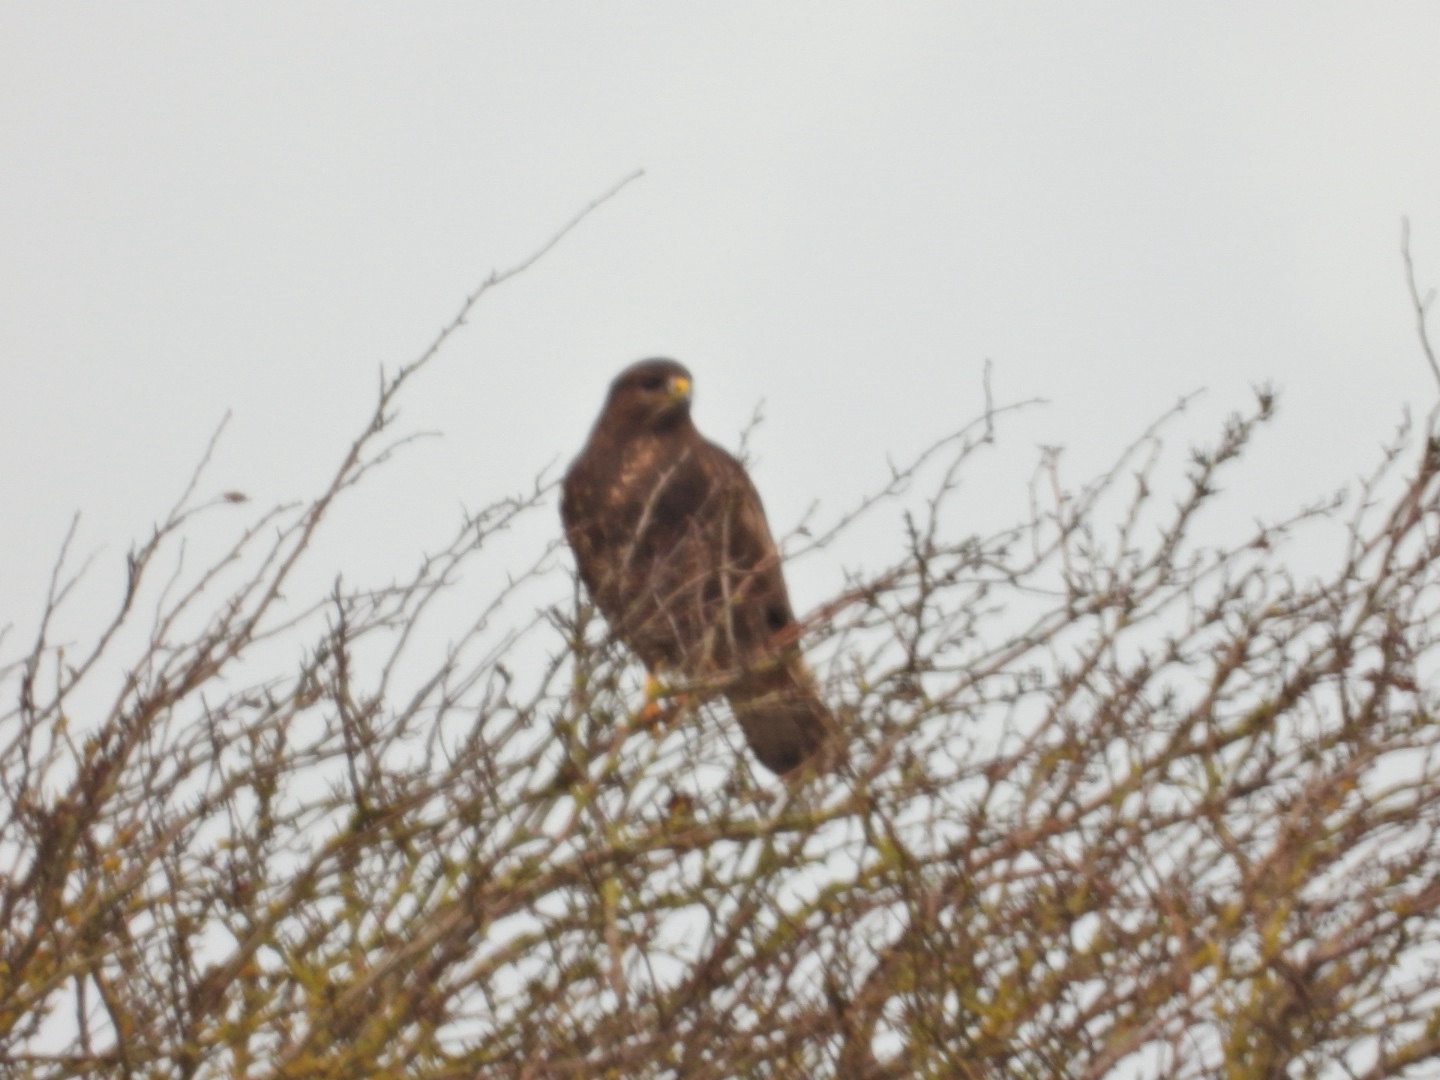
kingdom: Animalia
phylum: Chordata
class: Aves
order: Accipitriformes
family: Accipitridae
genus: Buteo
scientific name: Buteo buteo
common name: Musvåge
